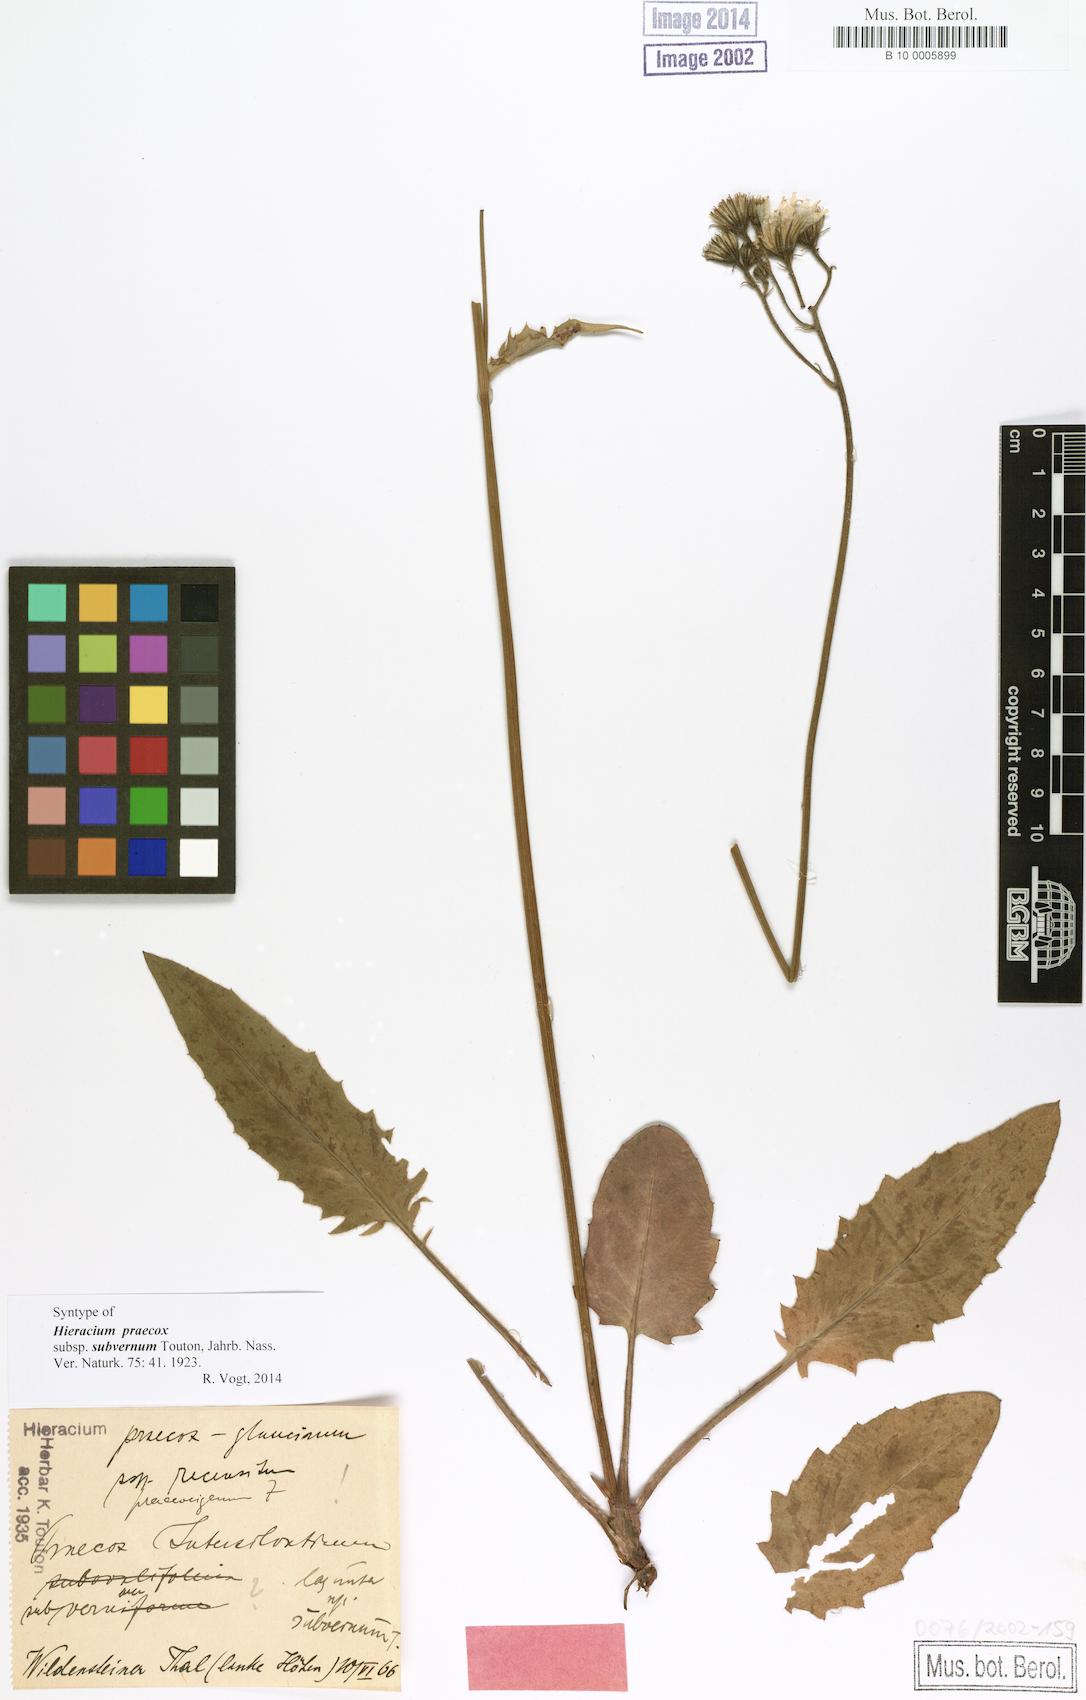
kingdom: Plantae
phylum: Tracheophyta
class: Magnoliopsida
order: Asterales
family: Asteraceae
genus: Hieracium
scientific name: Hieracium brevipes
